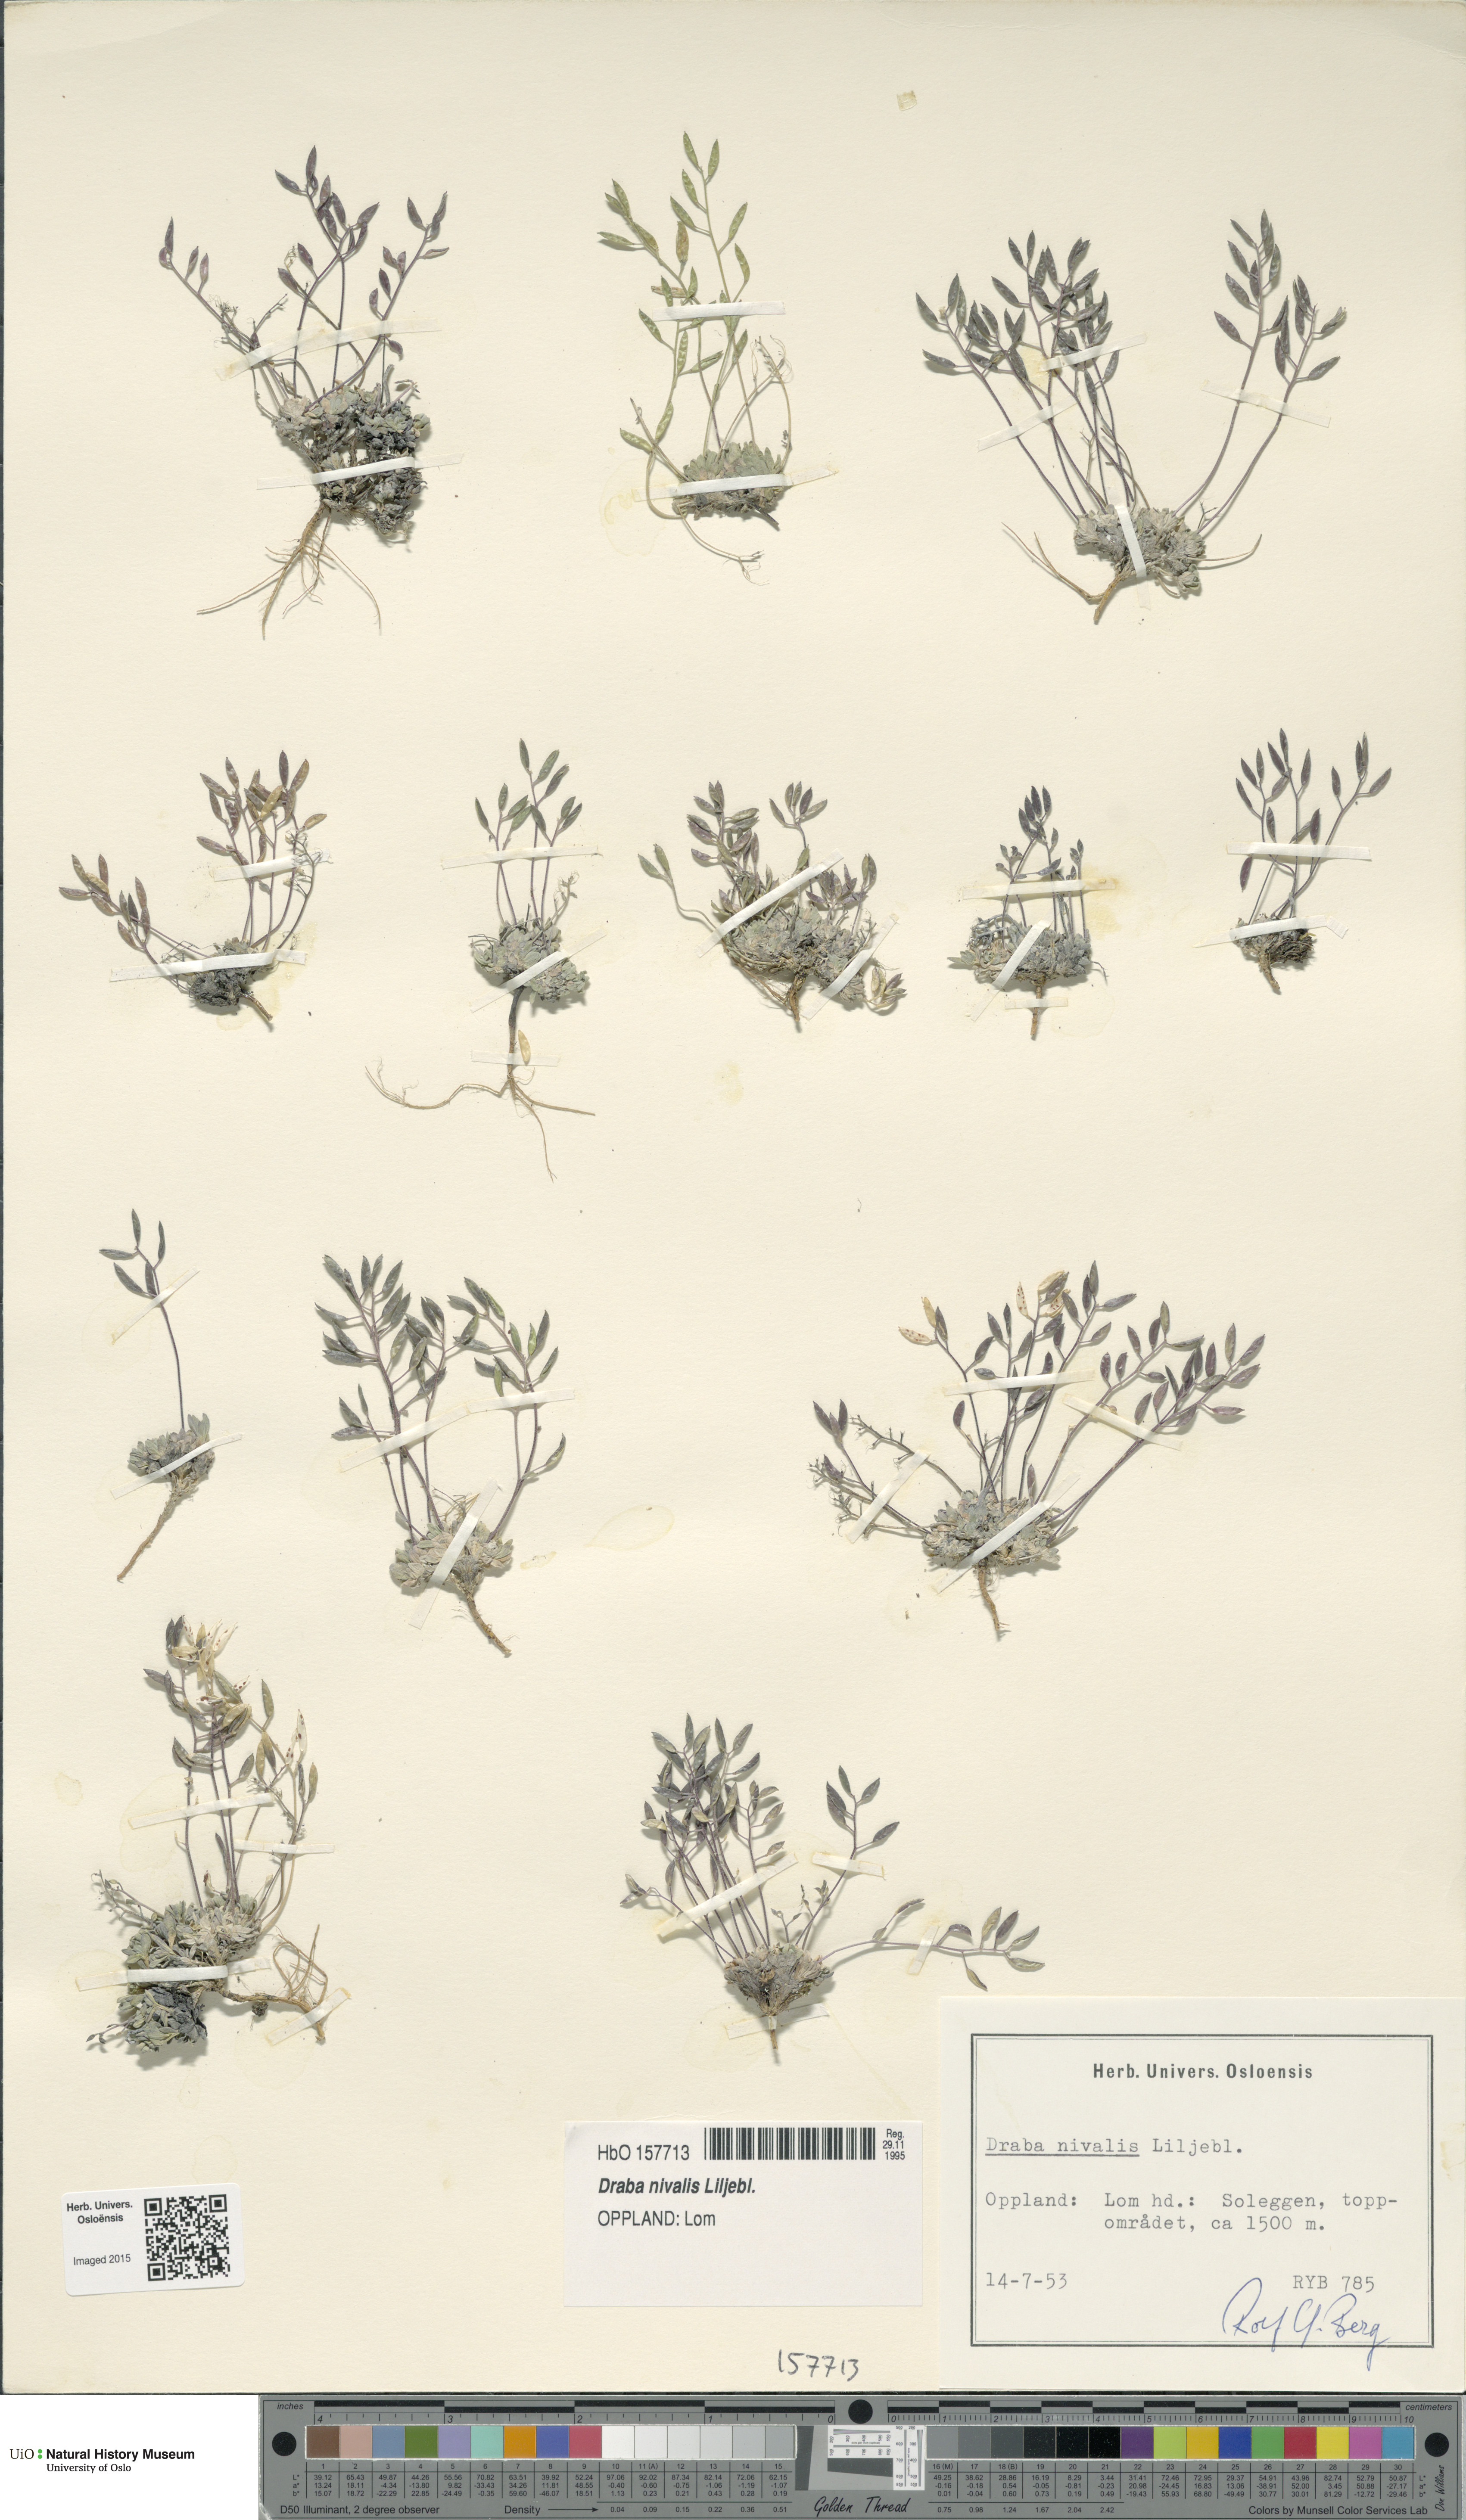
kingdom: Plantae
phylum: Tracheophyta
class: Magnoliopsida
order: Brassicales
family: Brassicaceae
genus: Draba
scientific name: Draba nivalis
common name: Snow draba
